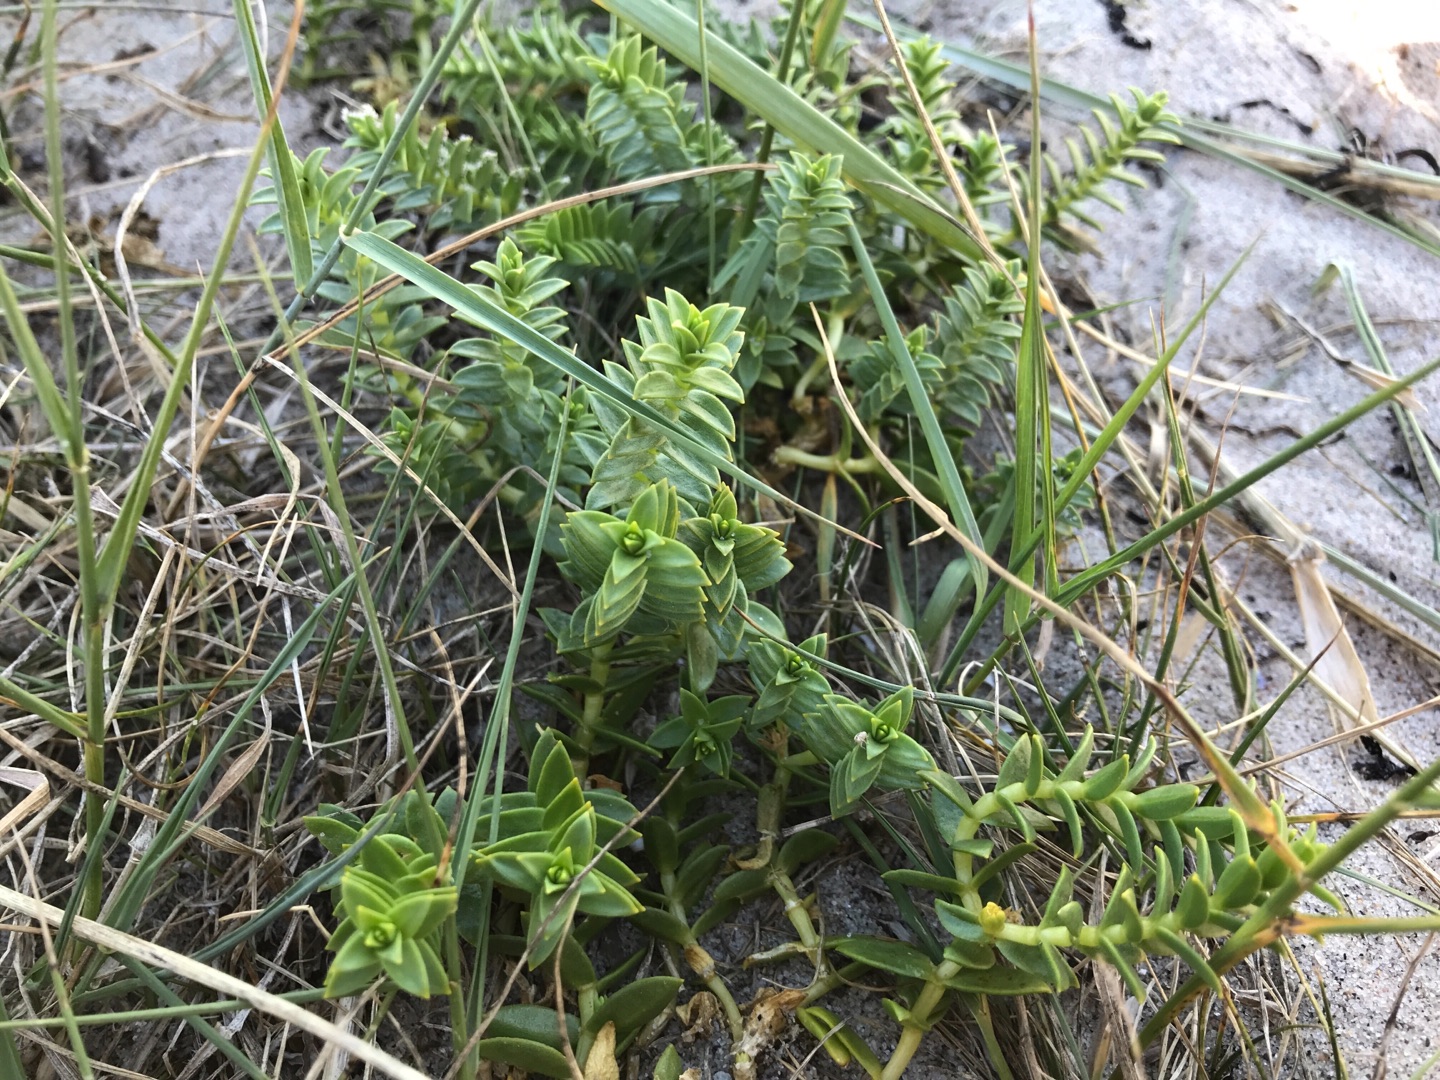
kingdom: Plantae
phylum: Tracheophyta
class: Magnoliopsida
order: Caryophyllales
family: Caryophyllaceae
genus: Honckenya
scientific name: Honckenya peploides
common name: Strandarve
